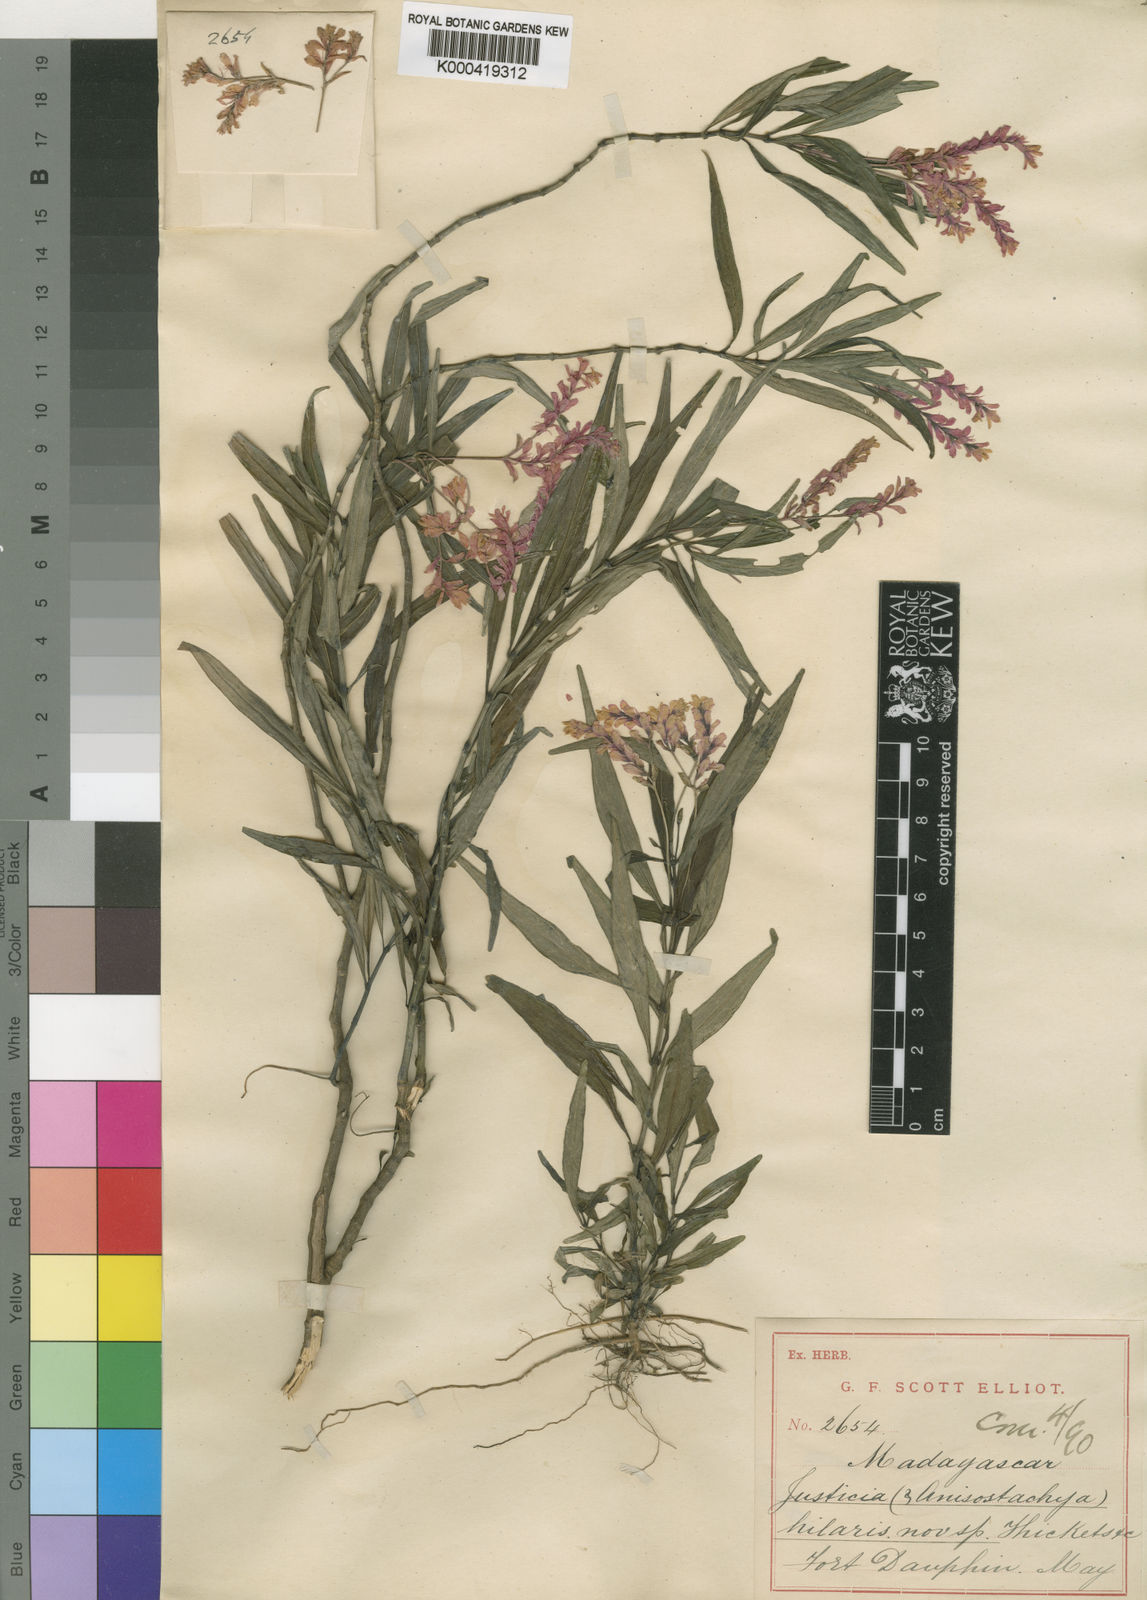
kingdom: Plantae
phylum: Tracheophyta
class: Magnoliopsida
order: Lamiales
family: Acanthaceae
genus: Justicia
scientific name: Justicia hilaris
